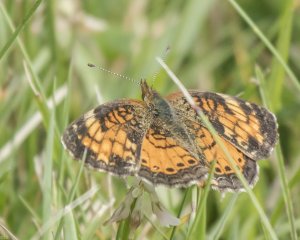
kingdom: Animalia
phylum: Arthropoda
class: Insecta
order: Lepidoptera
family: Nymphalidae
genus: Phyciodes
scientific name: Phyciodes tharos
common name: Northern Crescent
